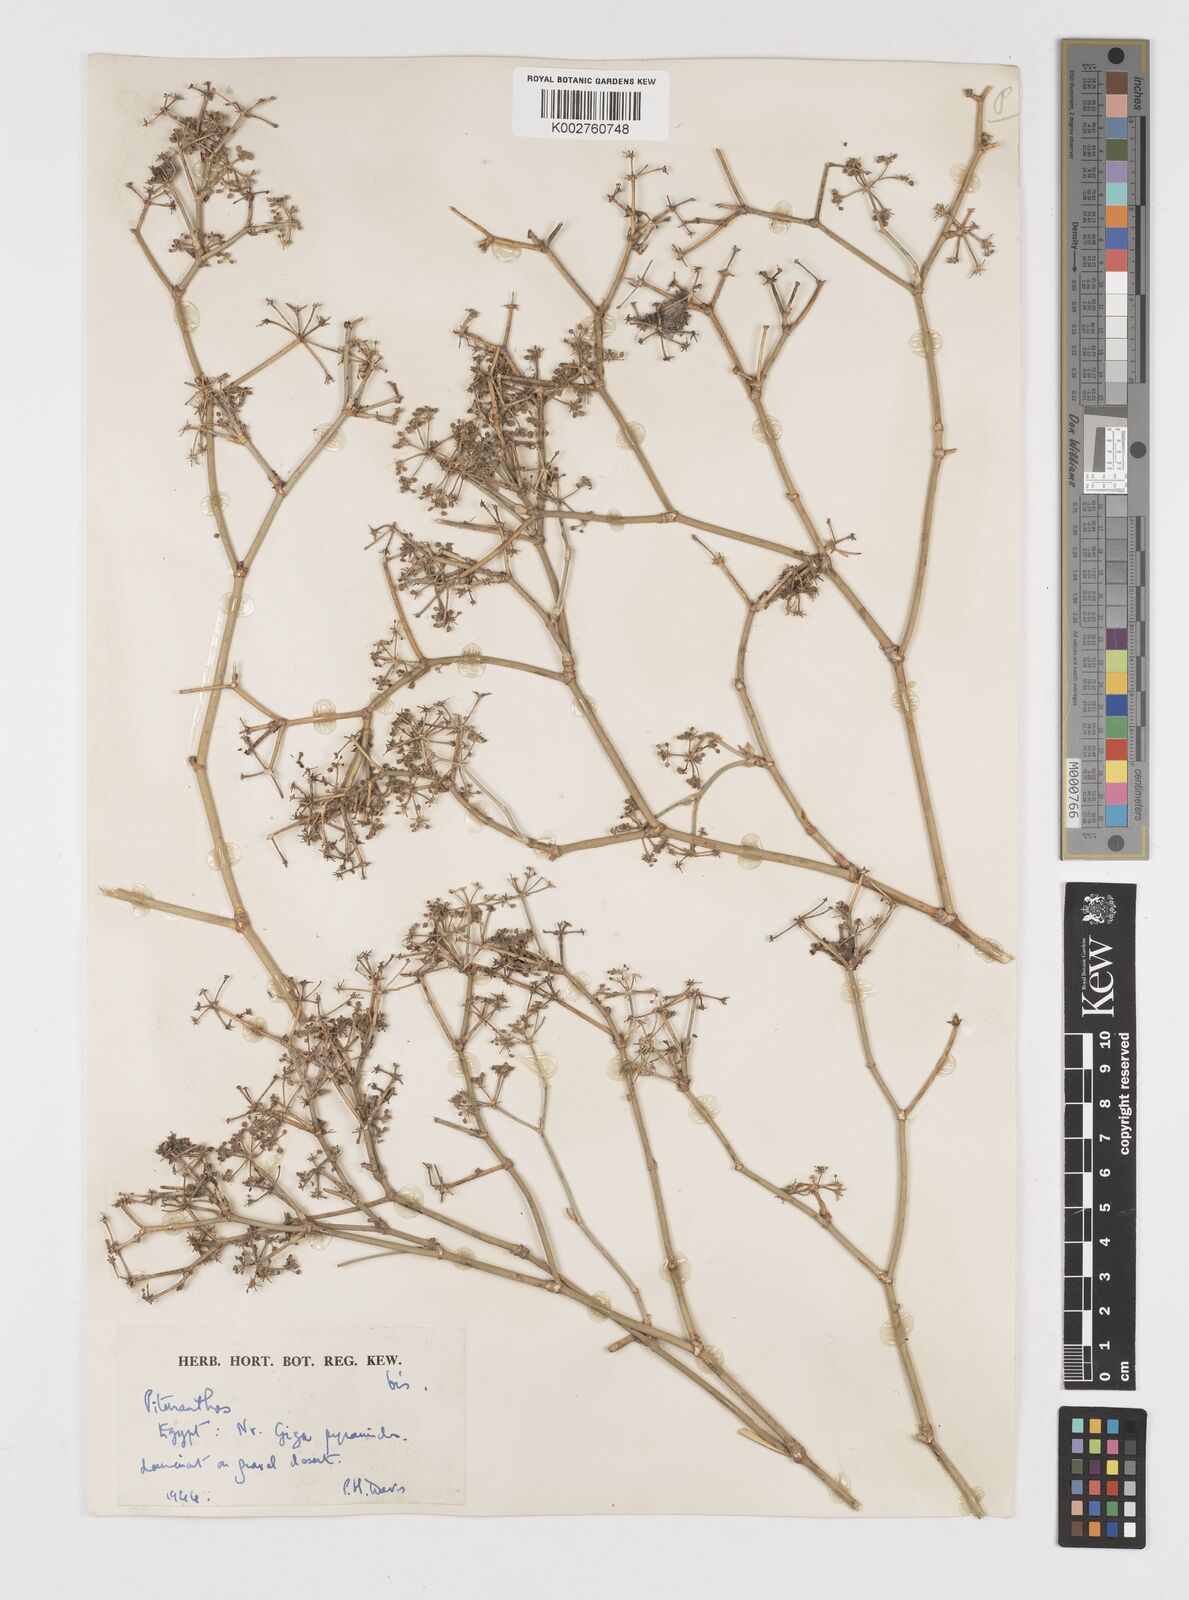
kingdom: Plantae
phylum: Tracheophyta
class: Magnoliopsida
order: Apiales
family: Apiaceae
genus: Deverra
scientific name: Deverra tortuosa
